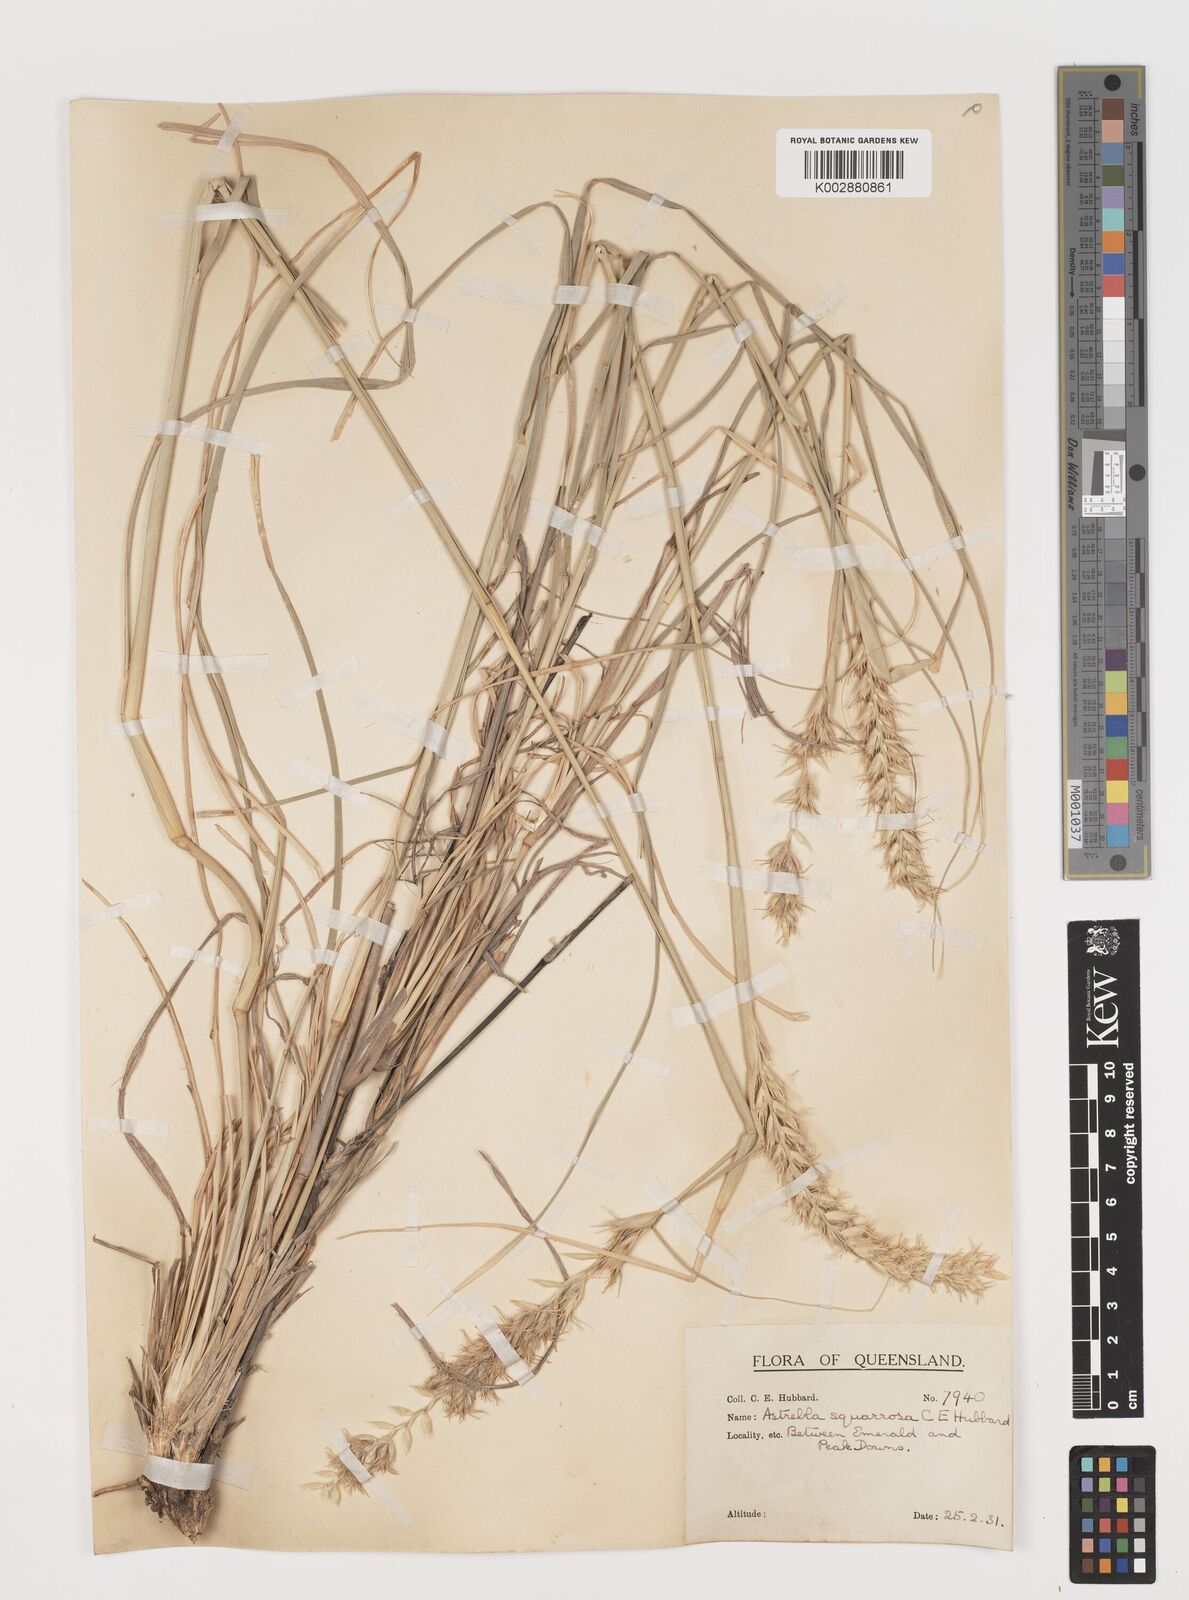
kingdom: Plantae
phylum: Tracheophyta
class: Liliopsida
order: Poales
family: Poaceae
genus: Astrebla
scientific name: Astrebla squarrosa
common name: Wheat-ear mitchell grass
